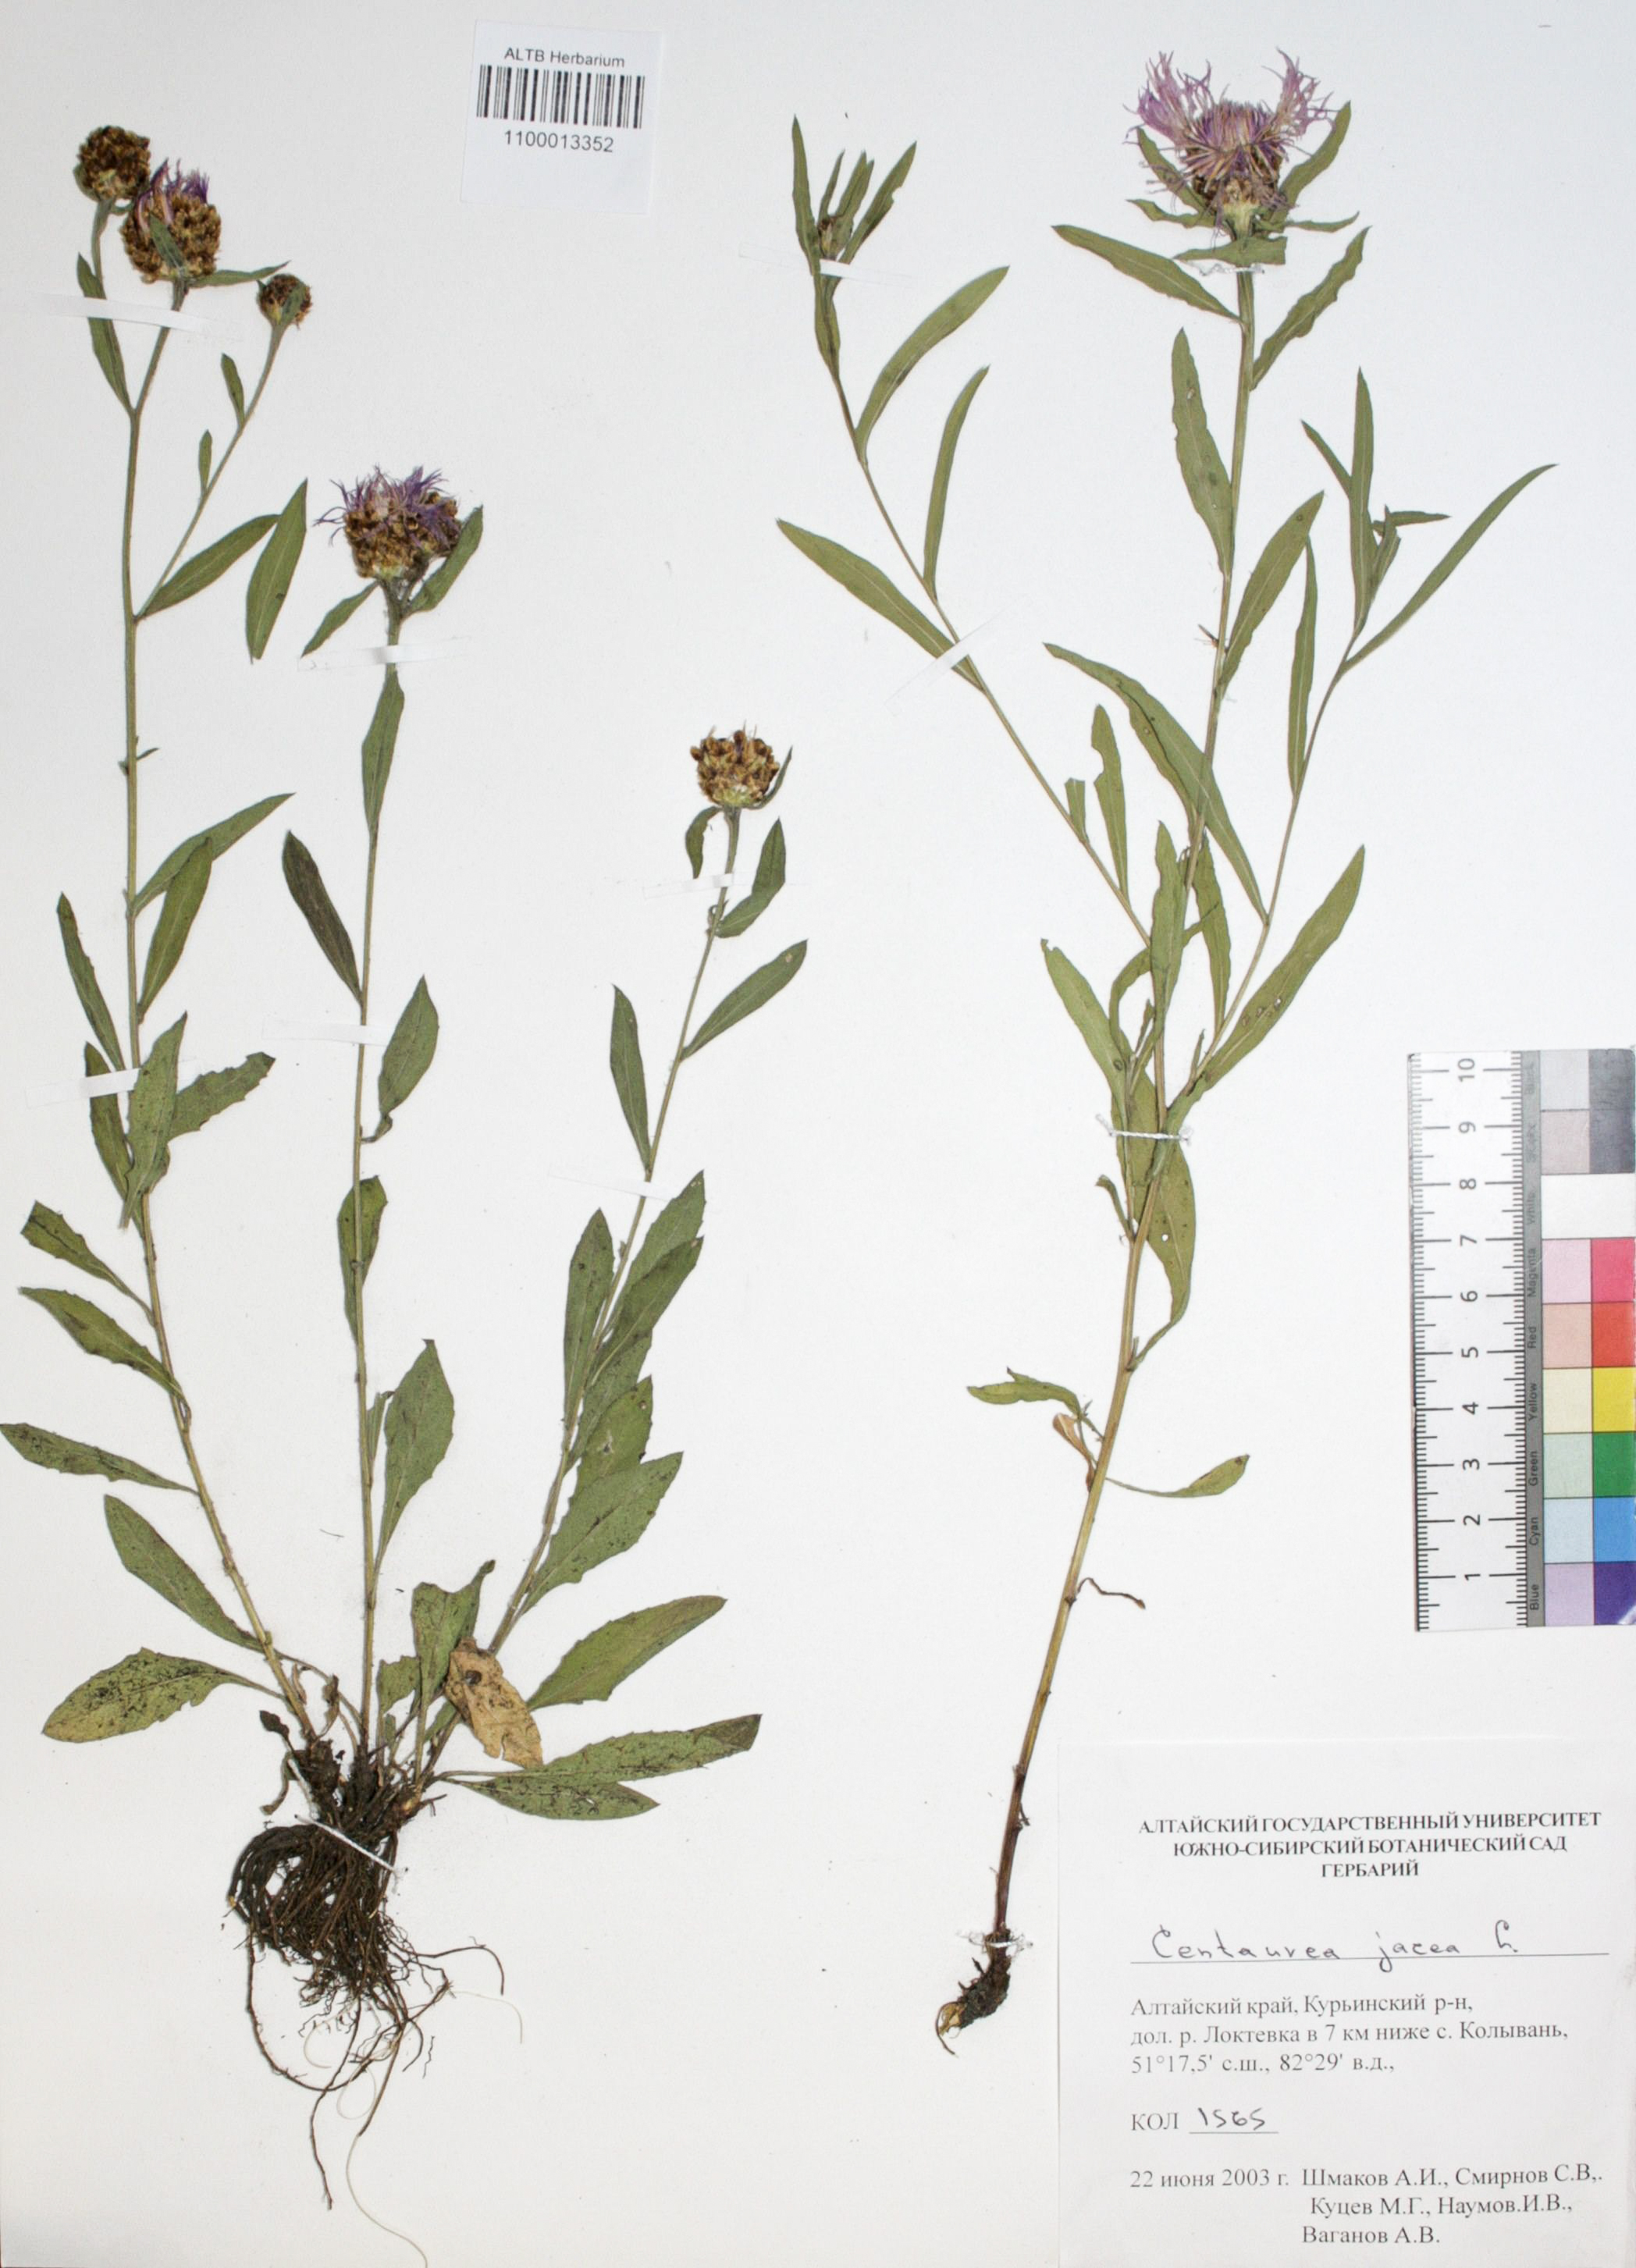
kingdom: Plantae
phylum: Tracheophyta
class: Magnoliopsida
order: Asterales
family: Asteraceae
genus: Centaurea
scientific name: Centaurea jacea
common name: Brown knapweed
